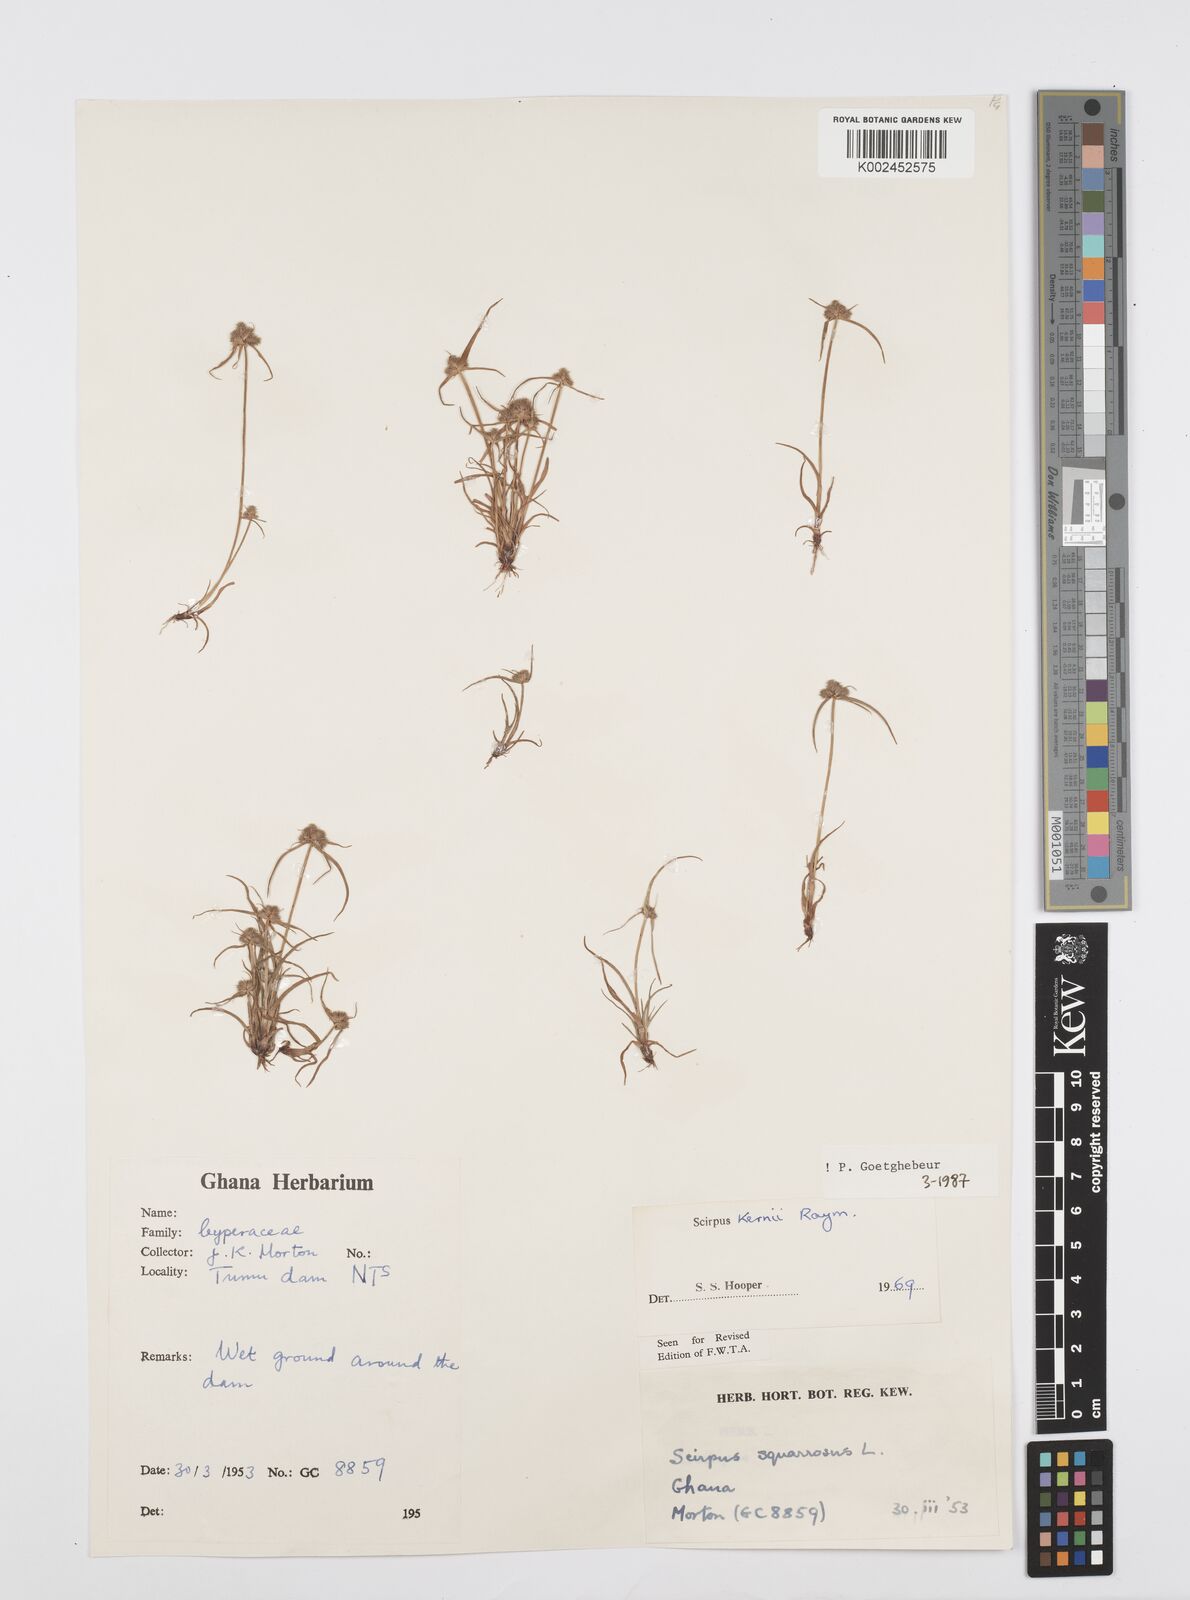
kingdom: Plantae
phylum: Tracheophyta
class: Liliopsida
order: Poales
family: Cyperaceae
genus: Cyperus
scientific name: Cyperus kernii
